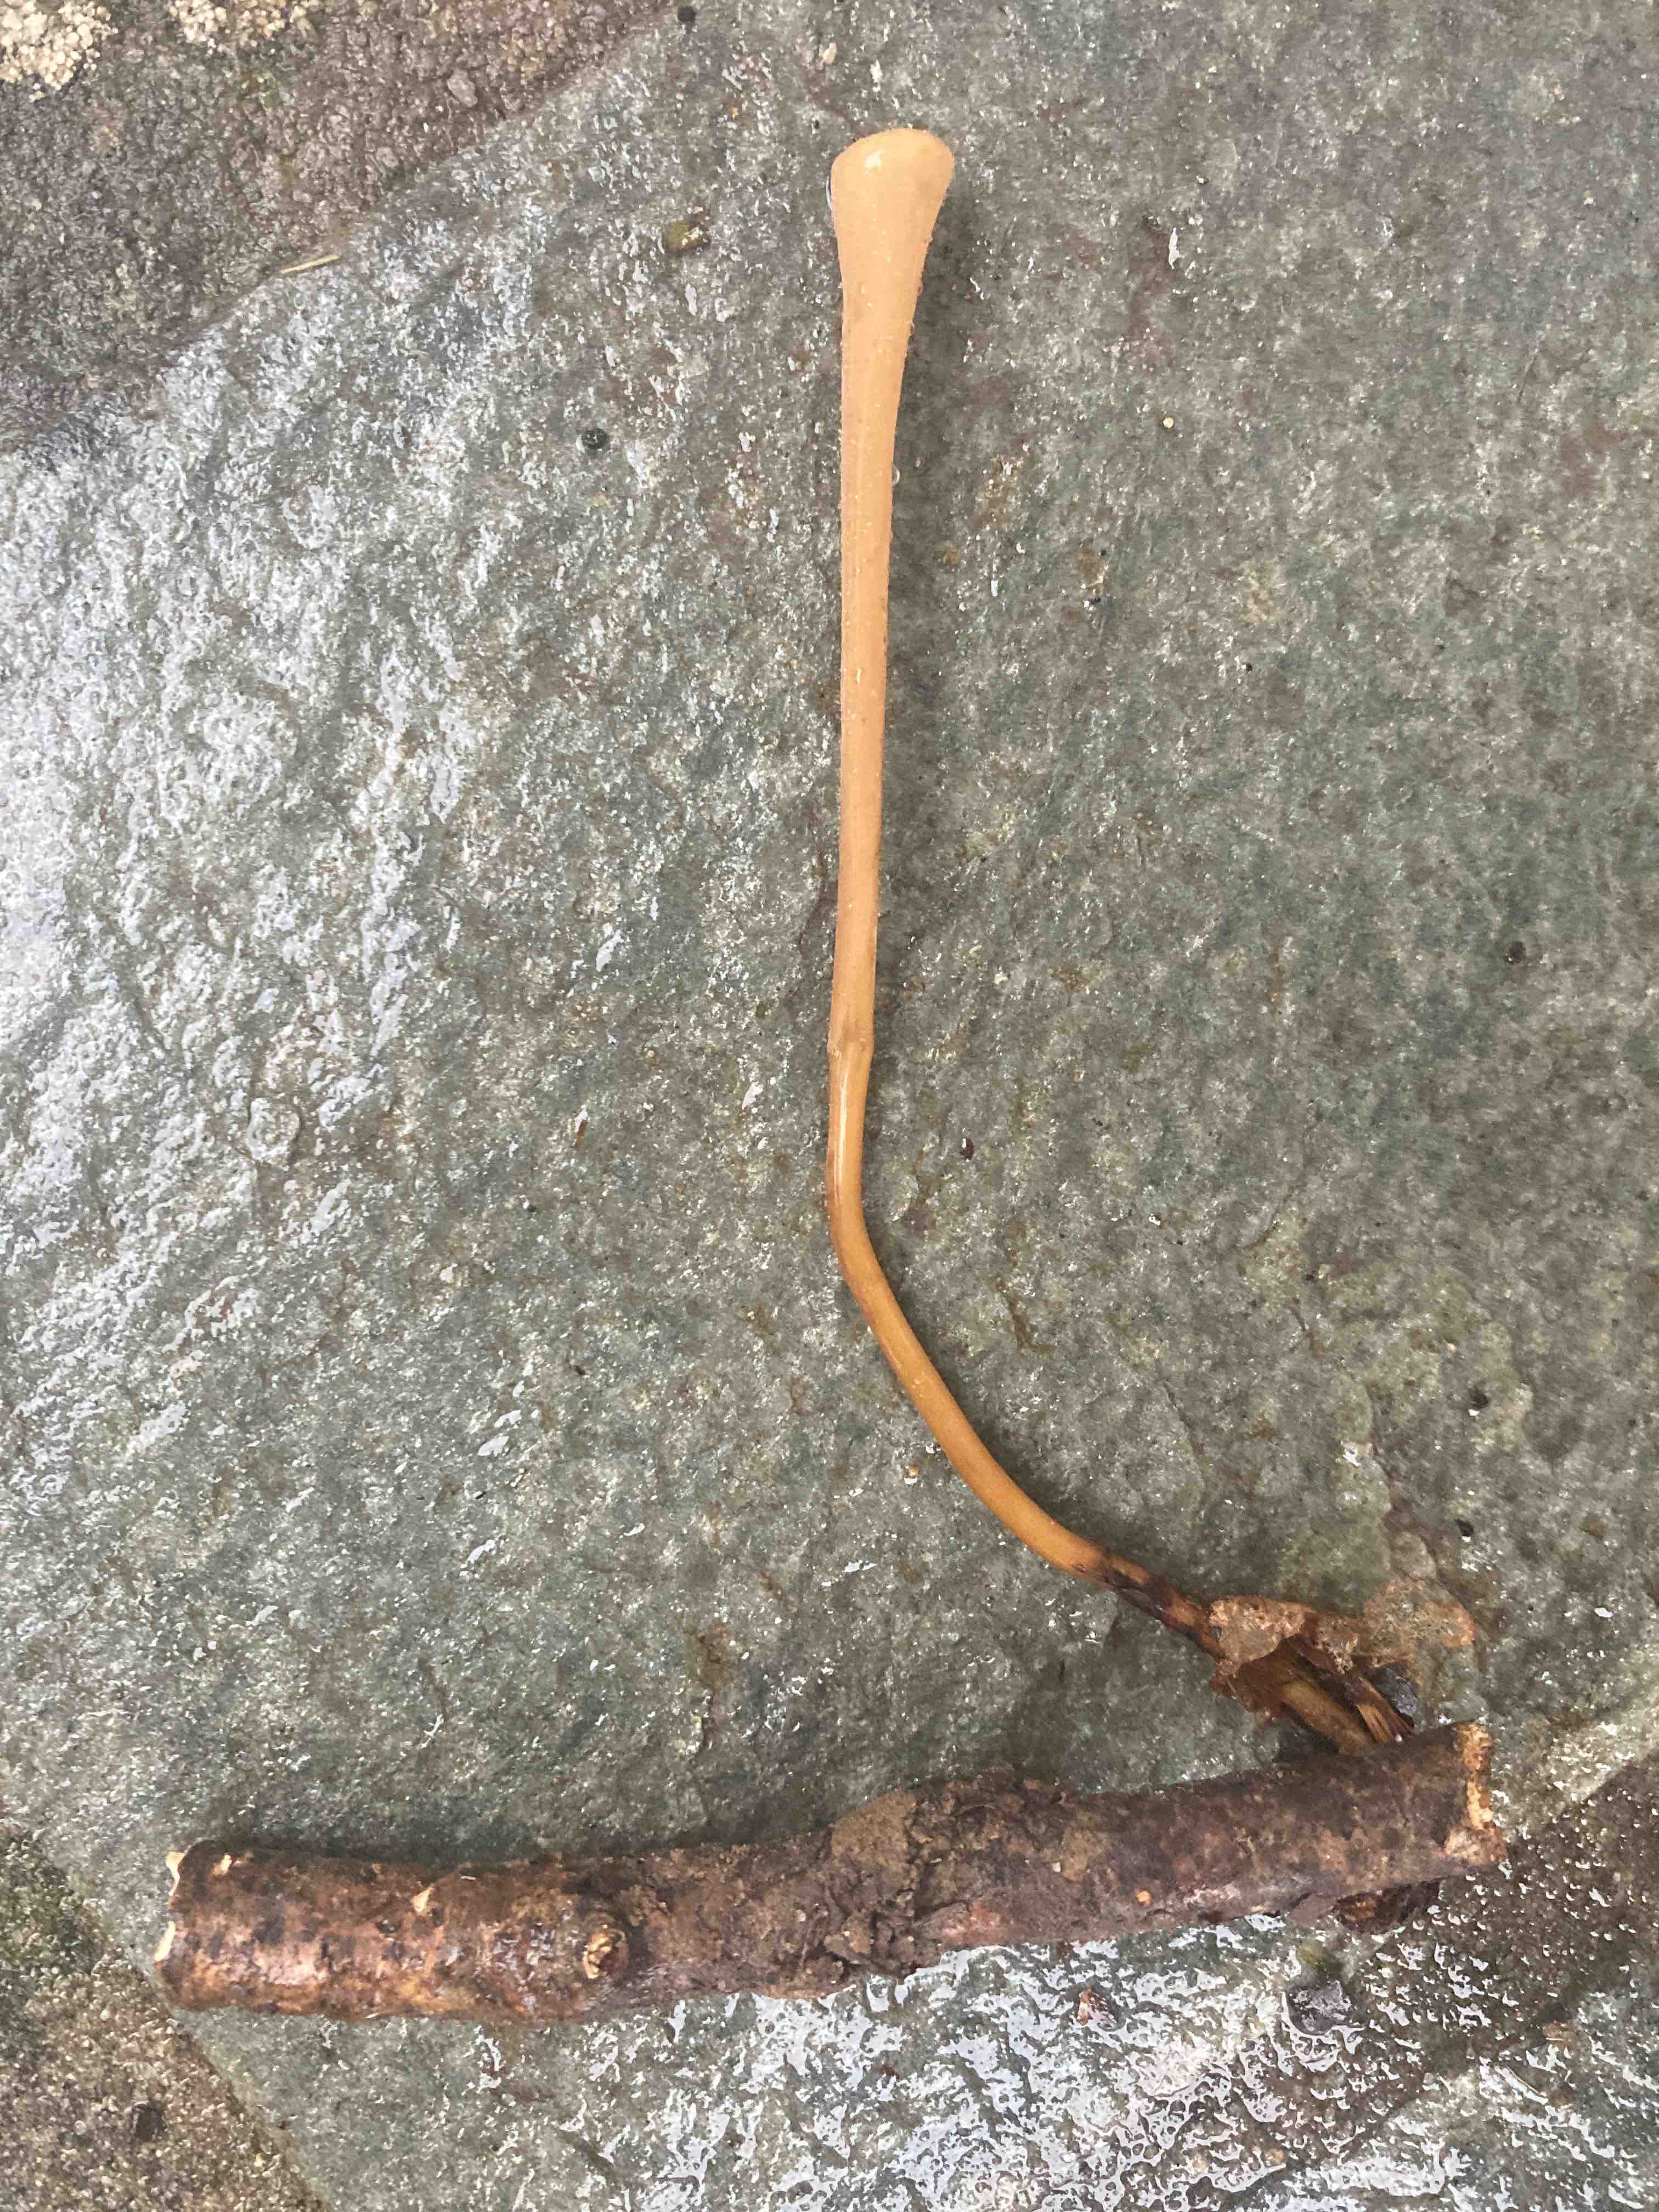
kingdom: Fungi
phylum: Basidiomycota
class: Agaricomycetes
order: Agaricales
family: Typhulaceae
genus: Typhula
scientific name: Typhula fistulosa
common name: pibet rørkølle
